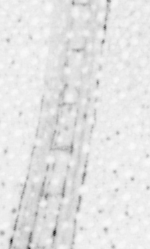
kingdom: Animalia
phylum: Chordata
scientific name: Chordata
